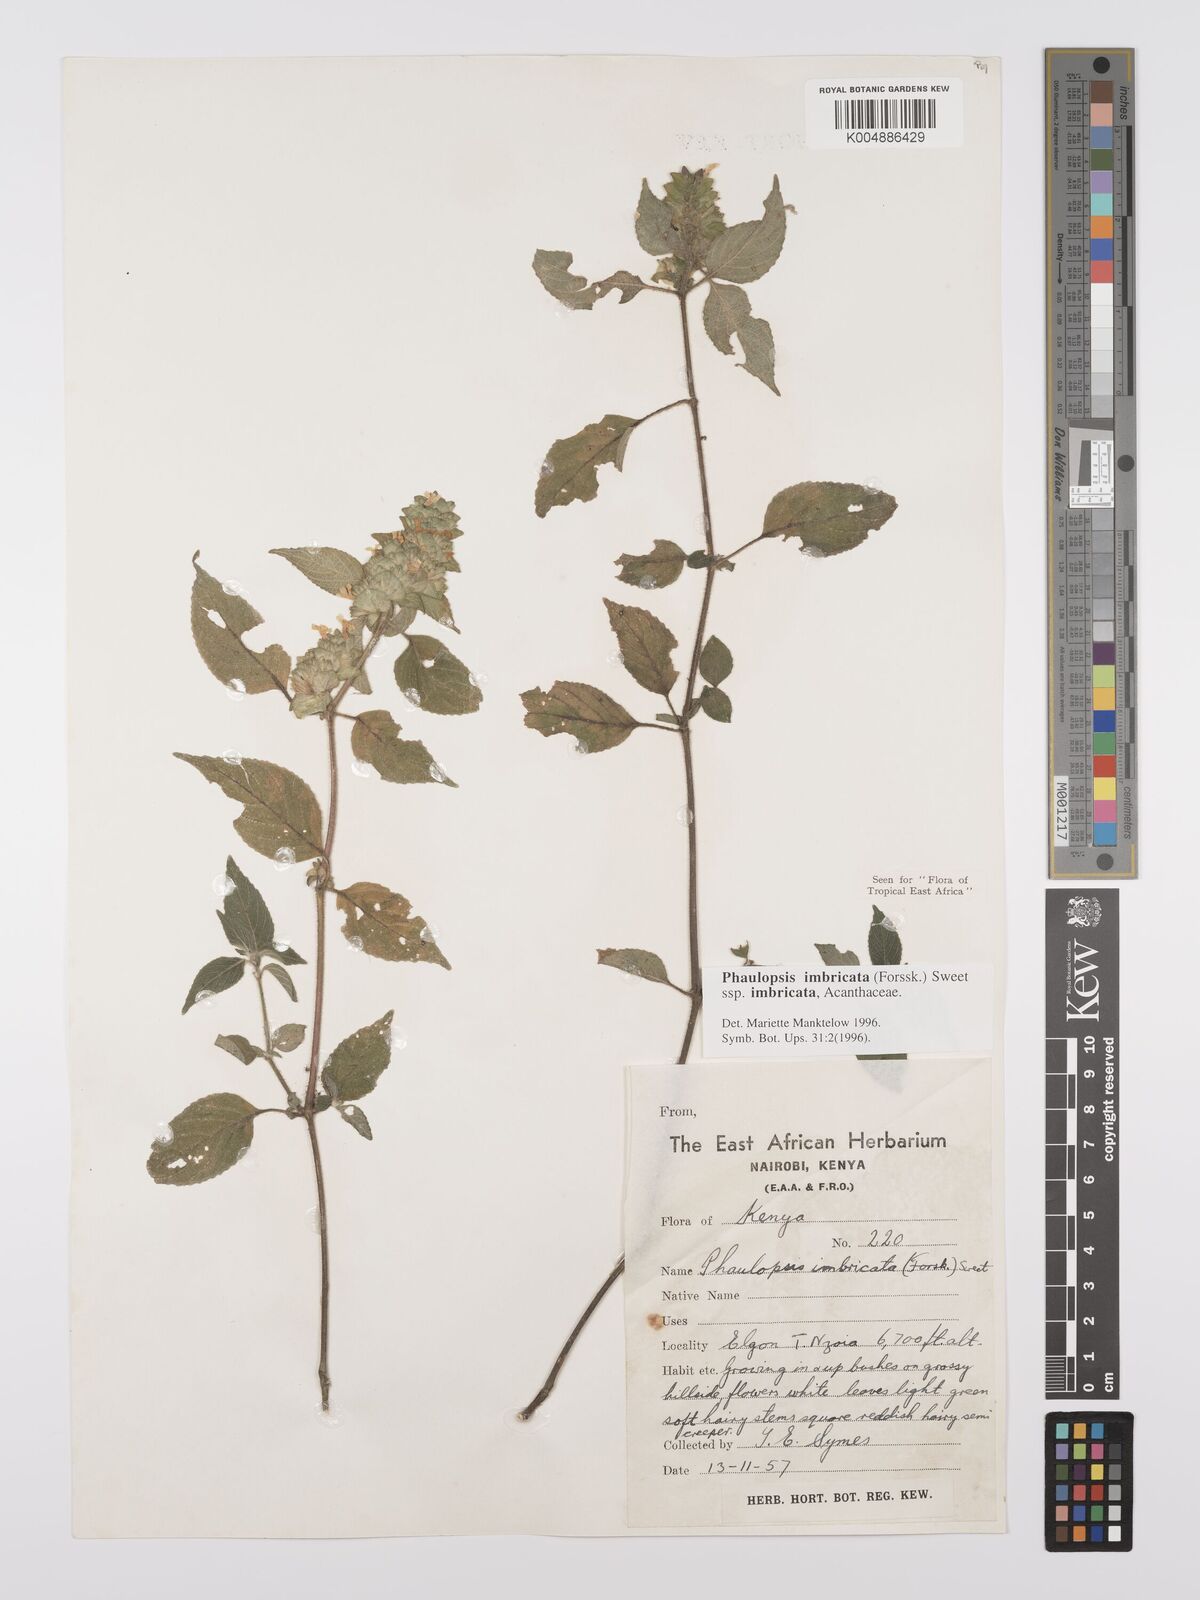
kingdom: Plantae
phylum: Tracheophyta
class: Magnoliopsida
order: Lamiales
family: Acanthaceae
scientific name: Acanthaceae
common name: Acanthaceae
